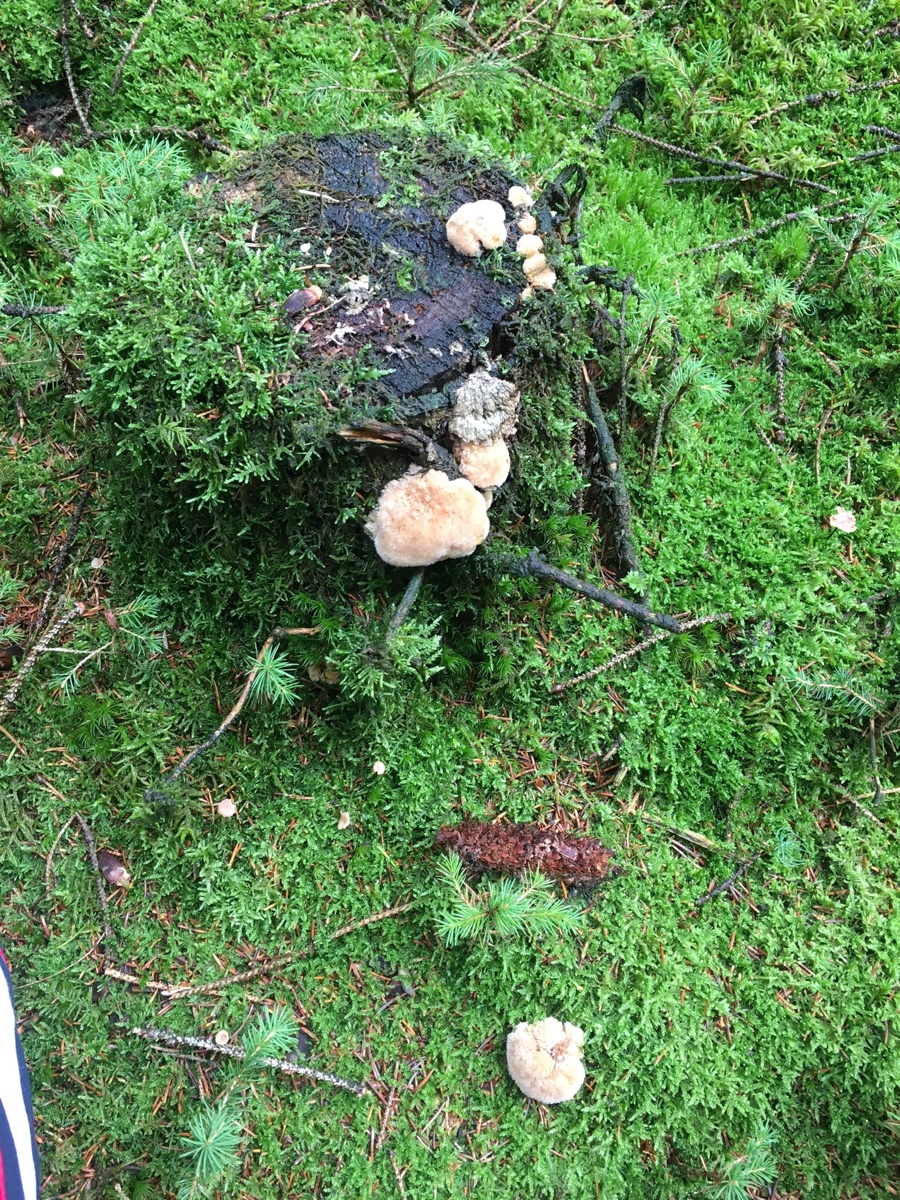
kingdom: Fungi
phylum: Basidiomycota
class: Agaricomycetes
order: Polyporales
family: Dacryobolaceae
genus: Postia
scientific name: Postia ptychogaster
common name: støvende kødporesvamp
